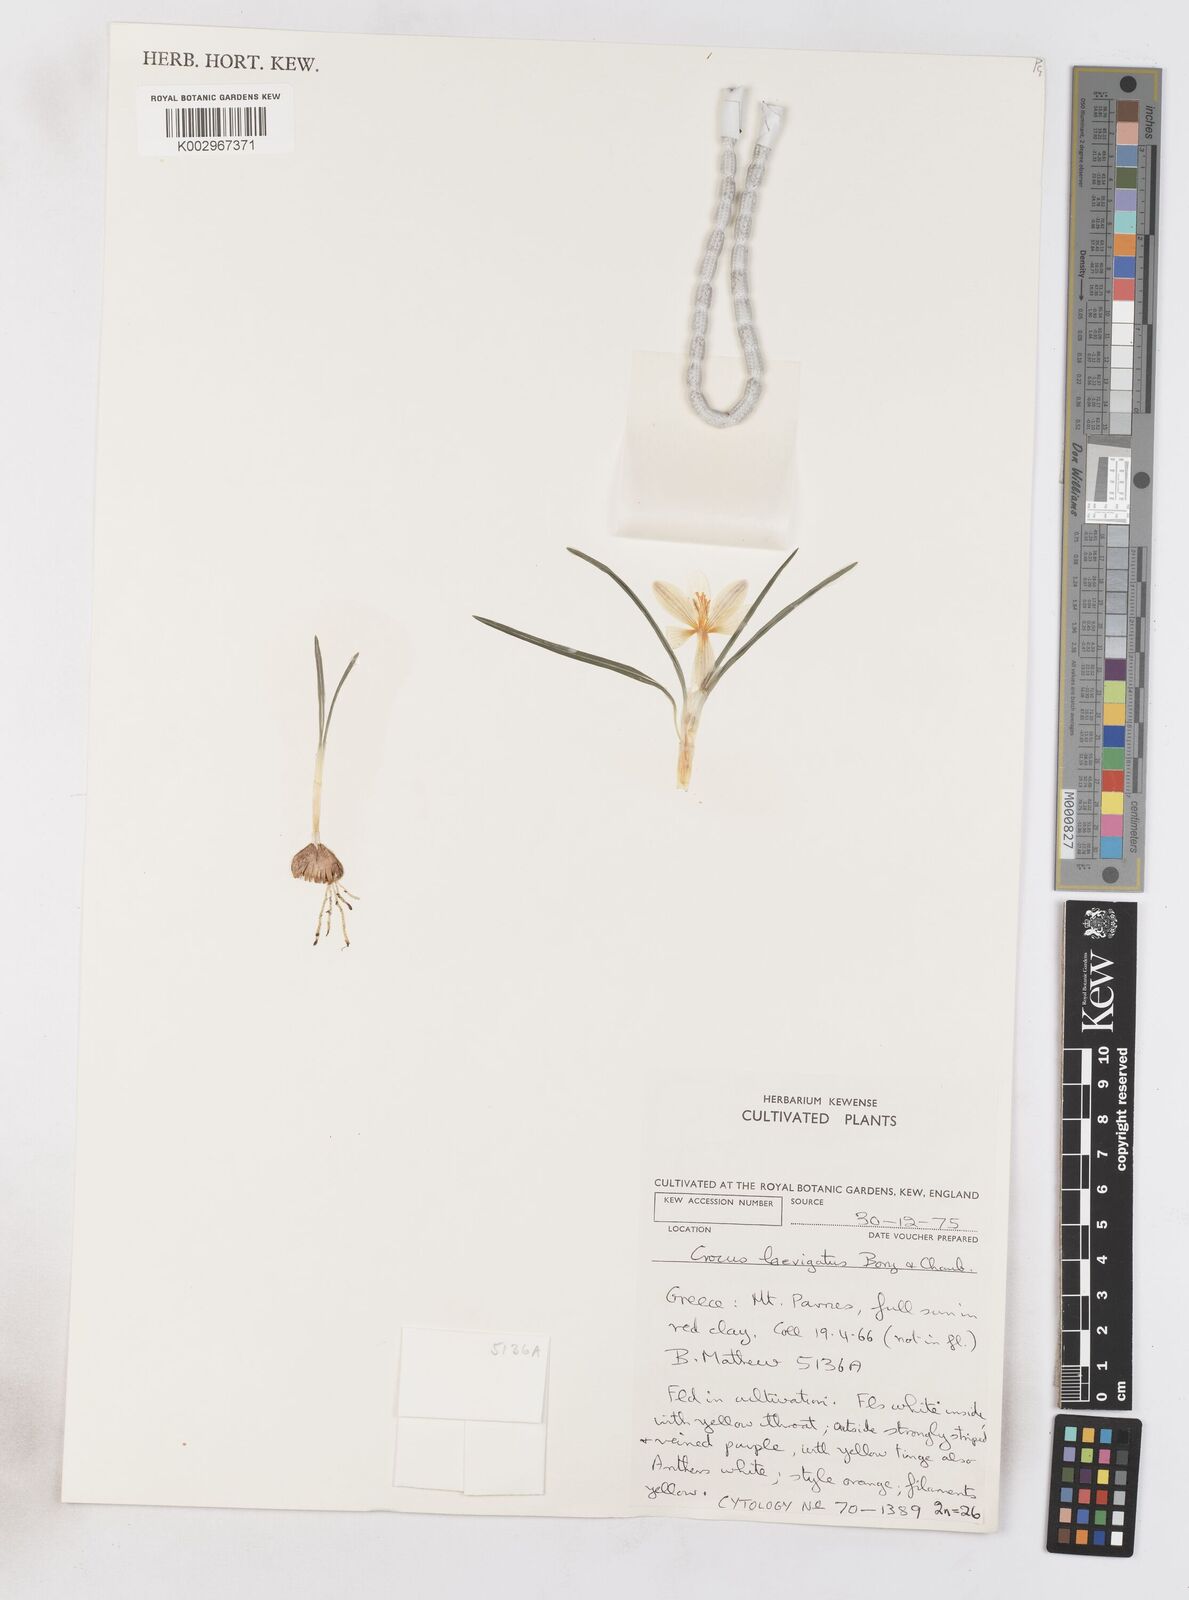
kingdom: Plantae
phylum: Tracheophyta
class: Liliopsida
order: Asparagales
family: Iridaceae
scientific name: Iridaceae
